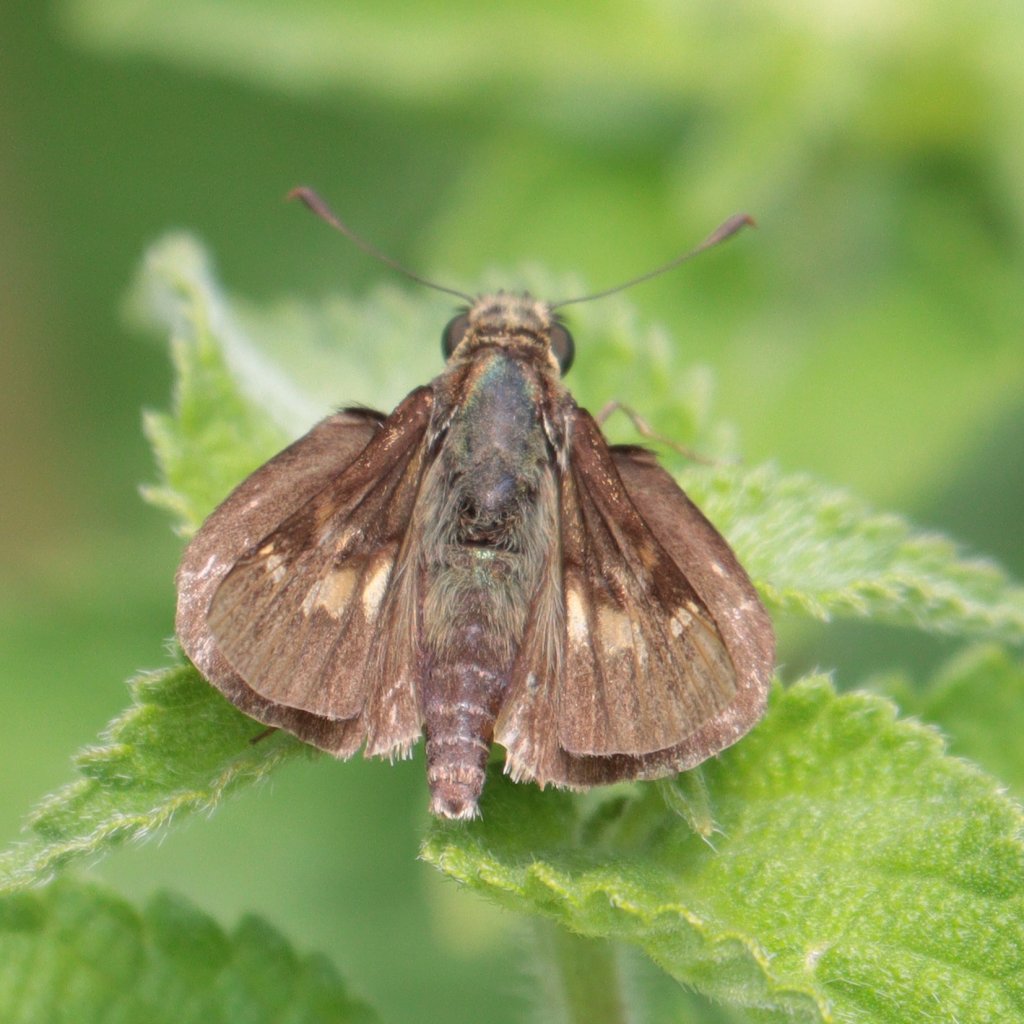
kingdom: Animalia
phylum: Arthropoda
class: Insecta
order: Lepidoptera
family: Hesperiidae
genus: Vernia
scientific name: Vernia verna
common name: Little Glassywing
